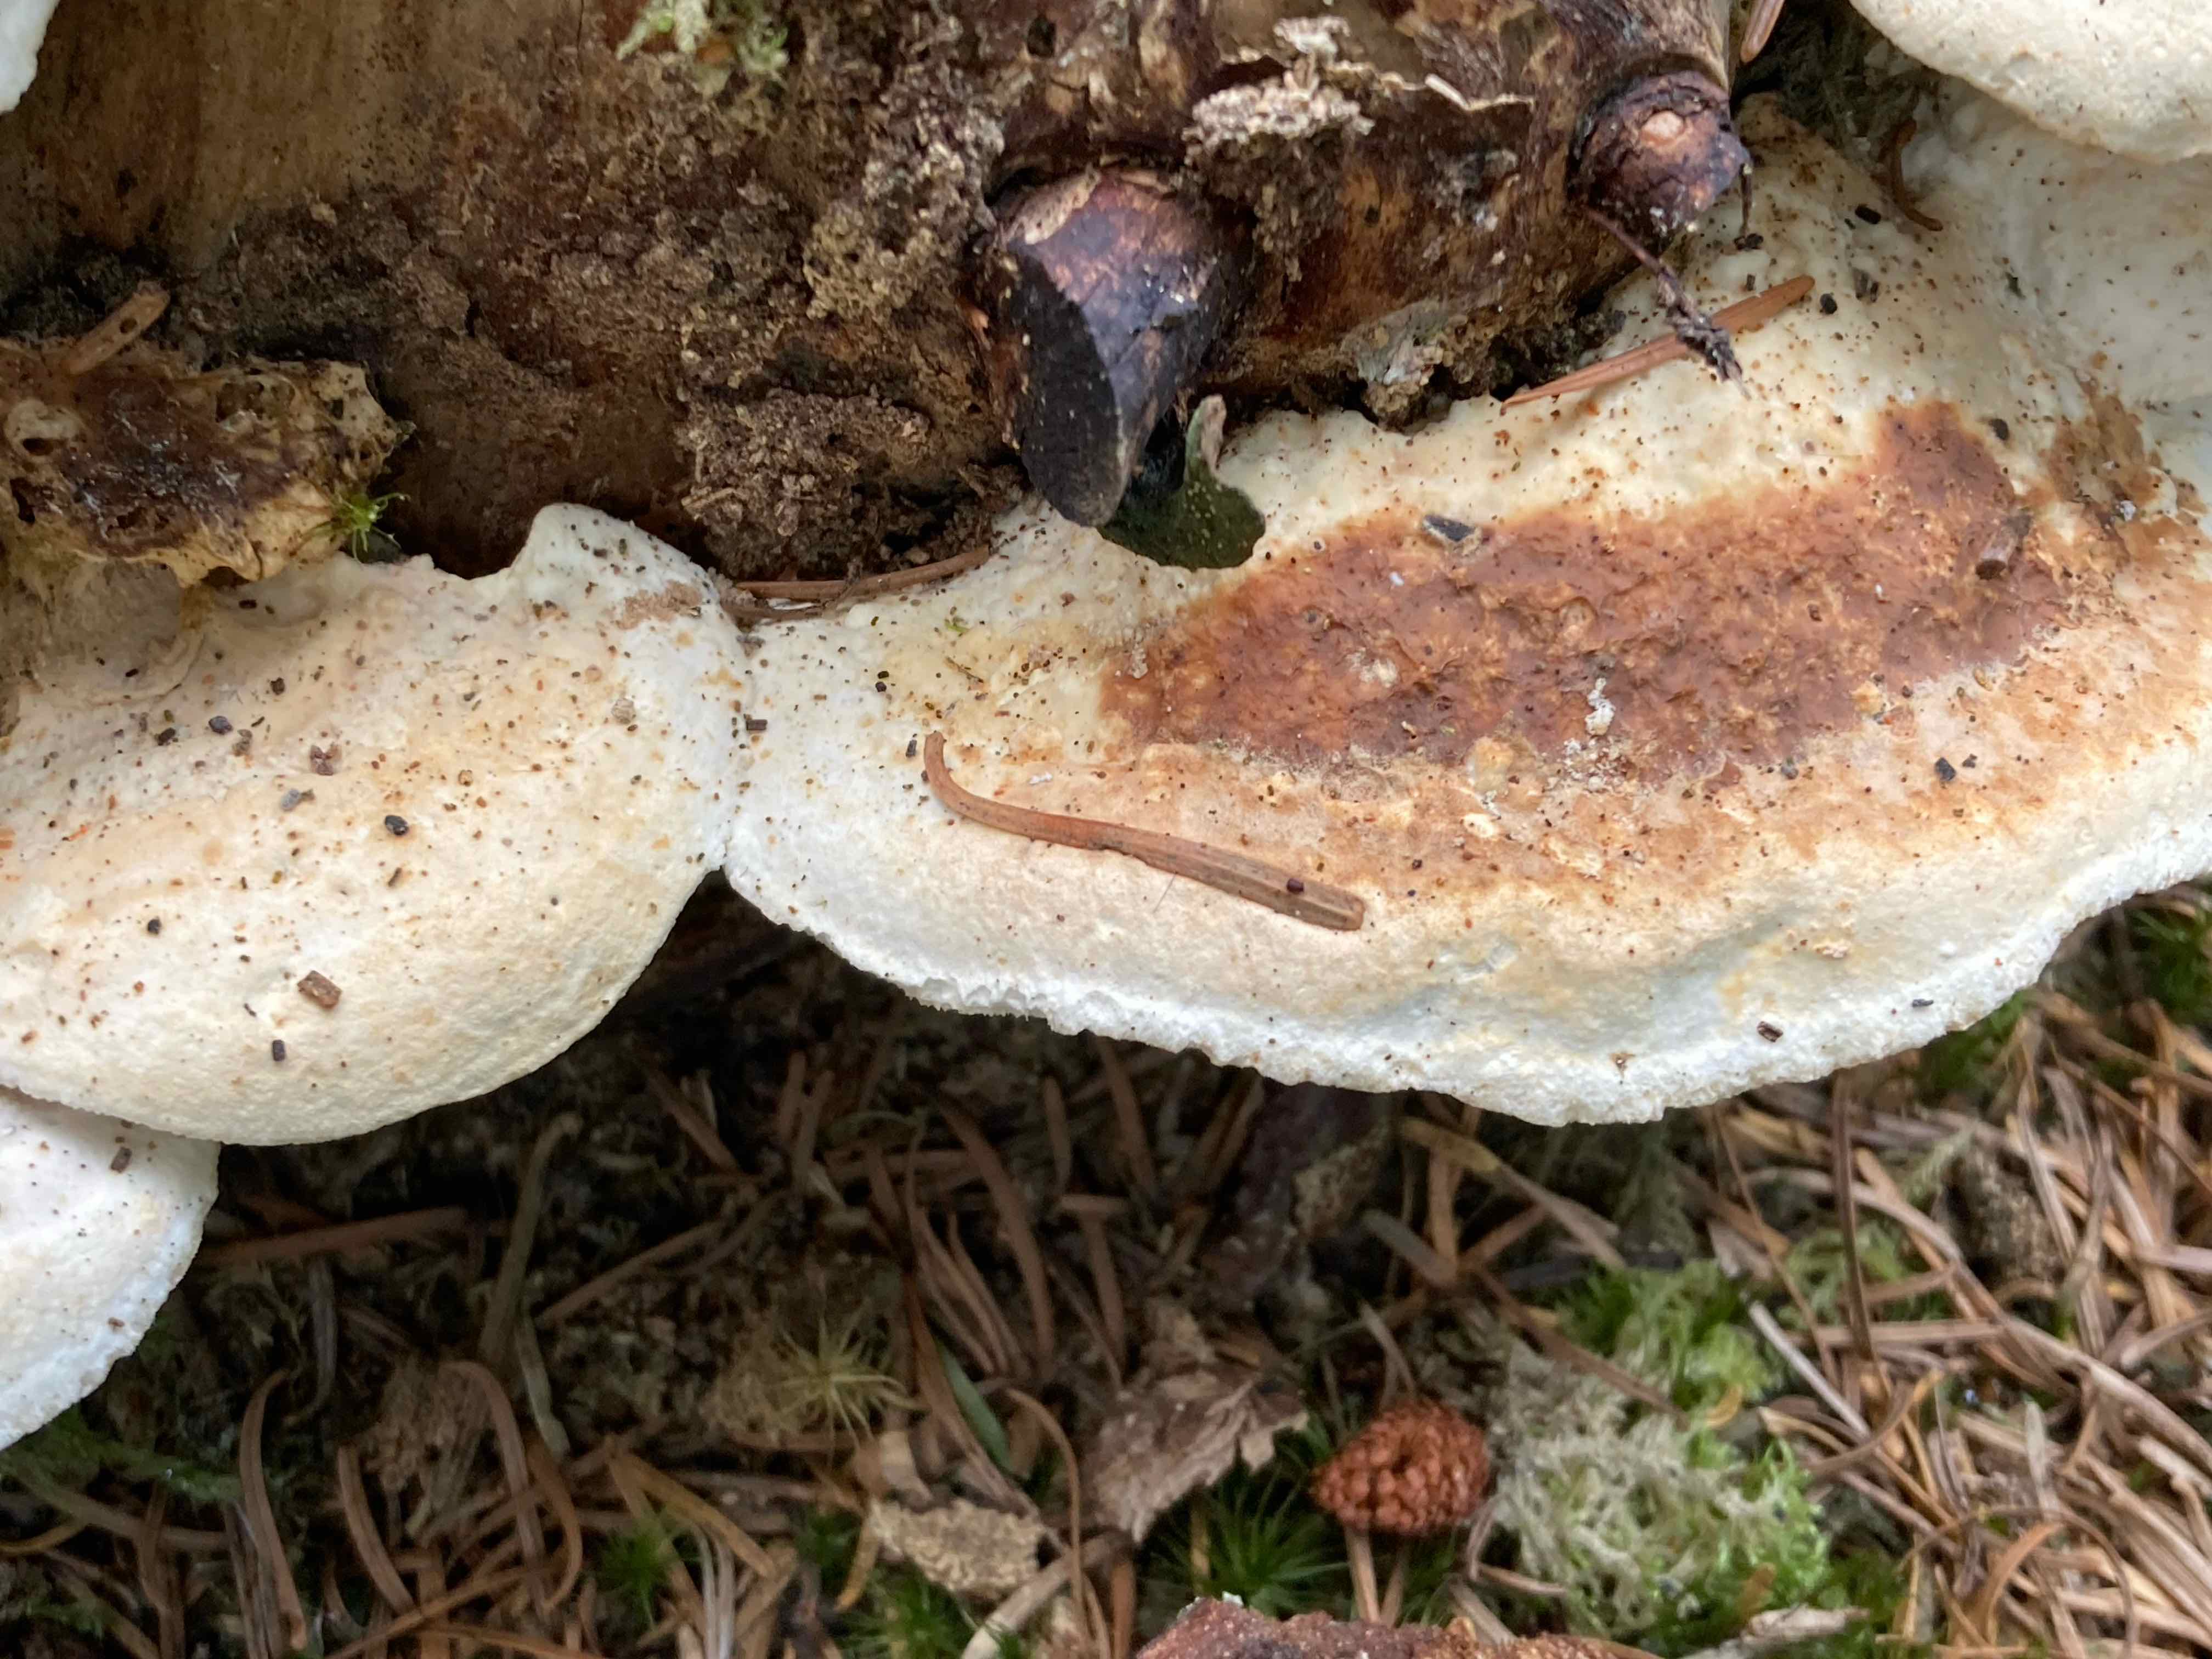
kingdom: Fungi
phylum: Basidiomycota
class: Agaricomycetes
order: Polyporales
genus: Calcipostia
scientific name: Calcipostia guttulata
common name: dråbe-kødporesvamp
